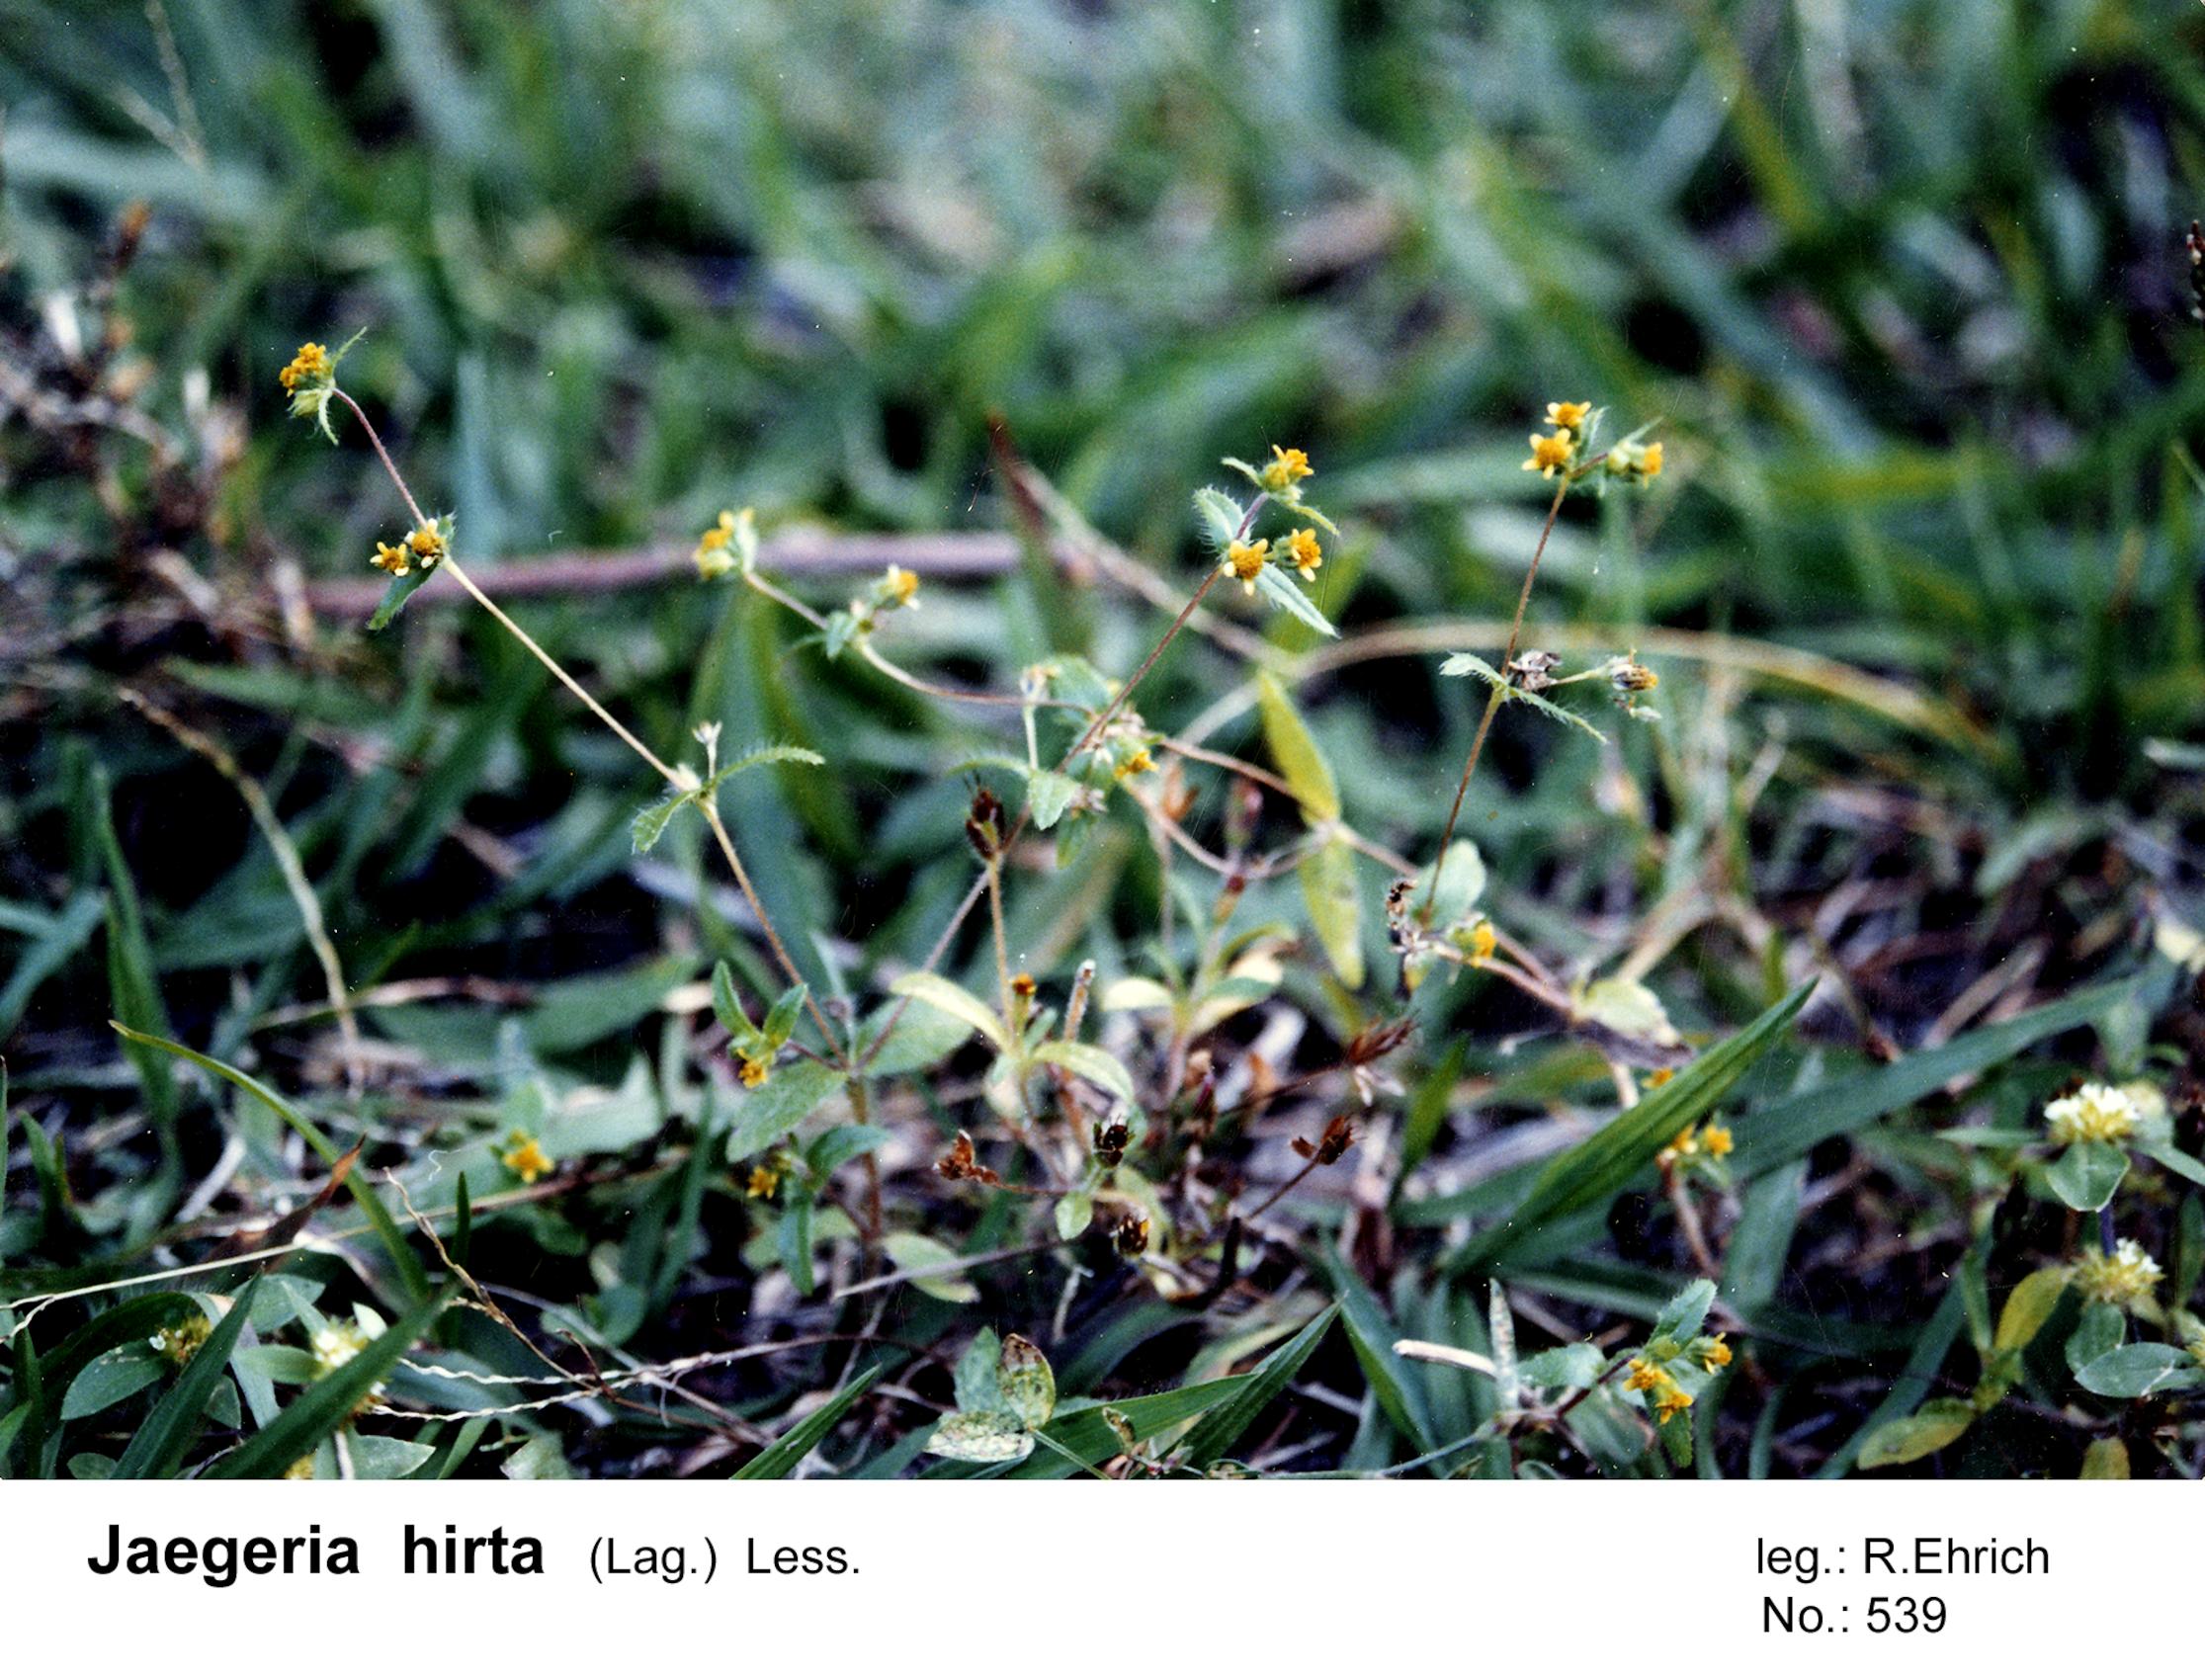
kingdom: Plantae
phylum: Tracheophyta
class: Magnoliopsida
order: Asterales
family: Asteraceae
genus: Jaegeria
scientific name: Jaegeria hirta
